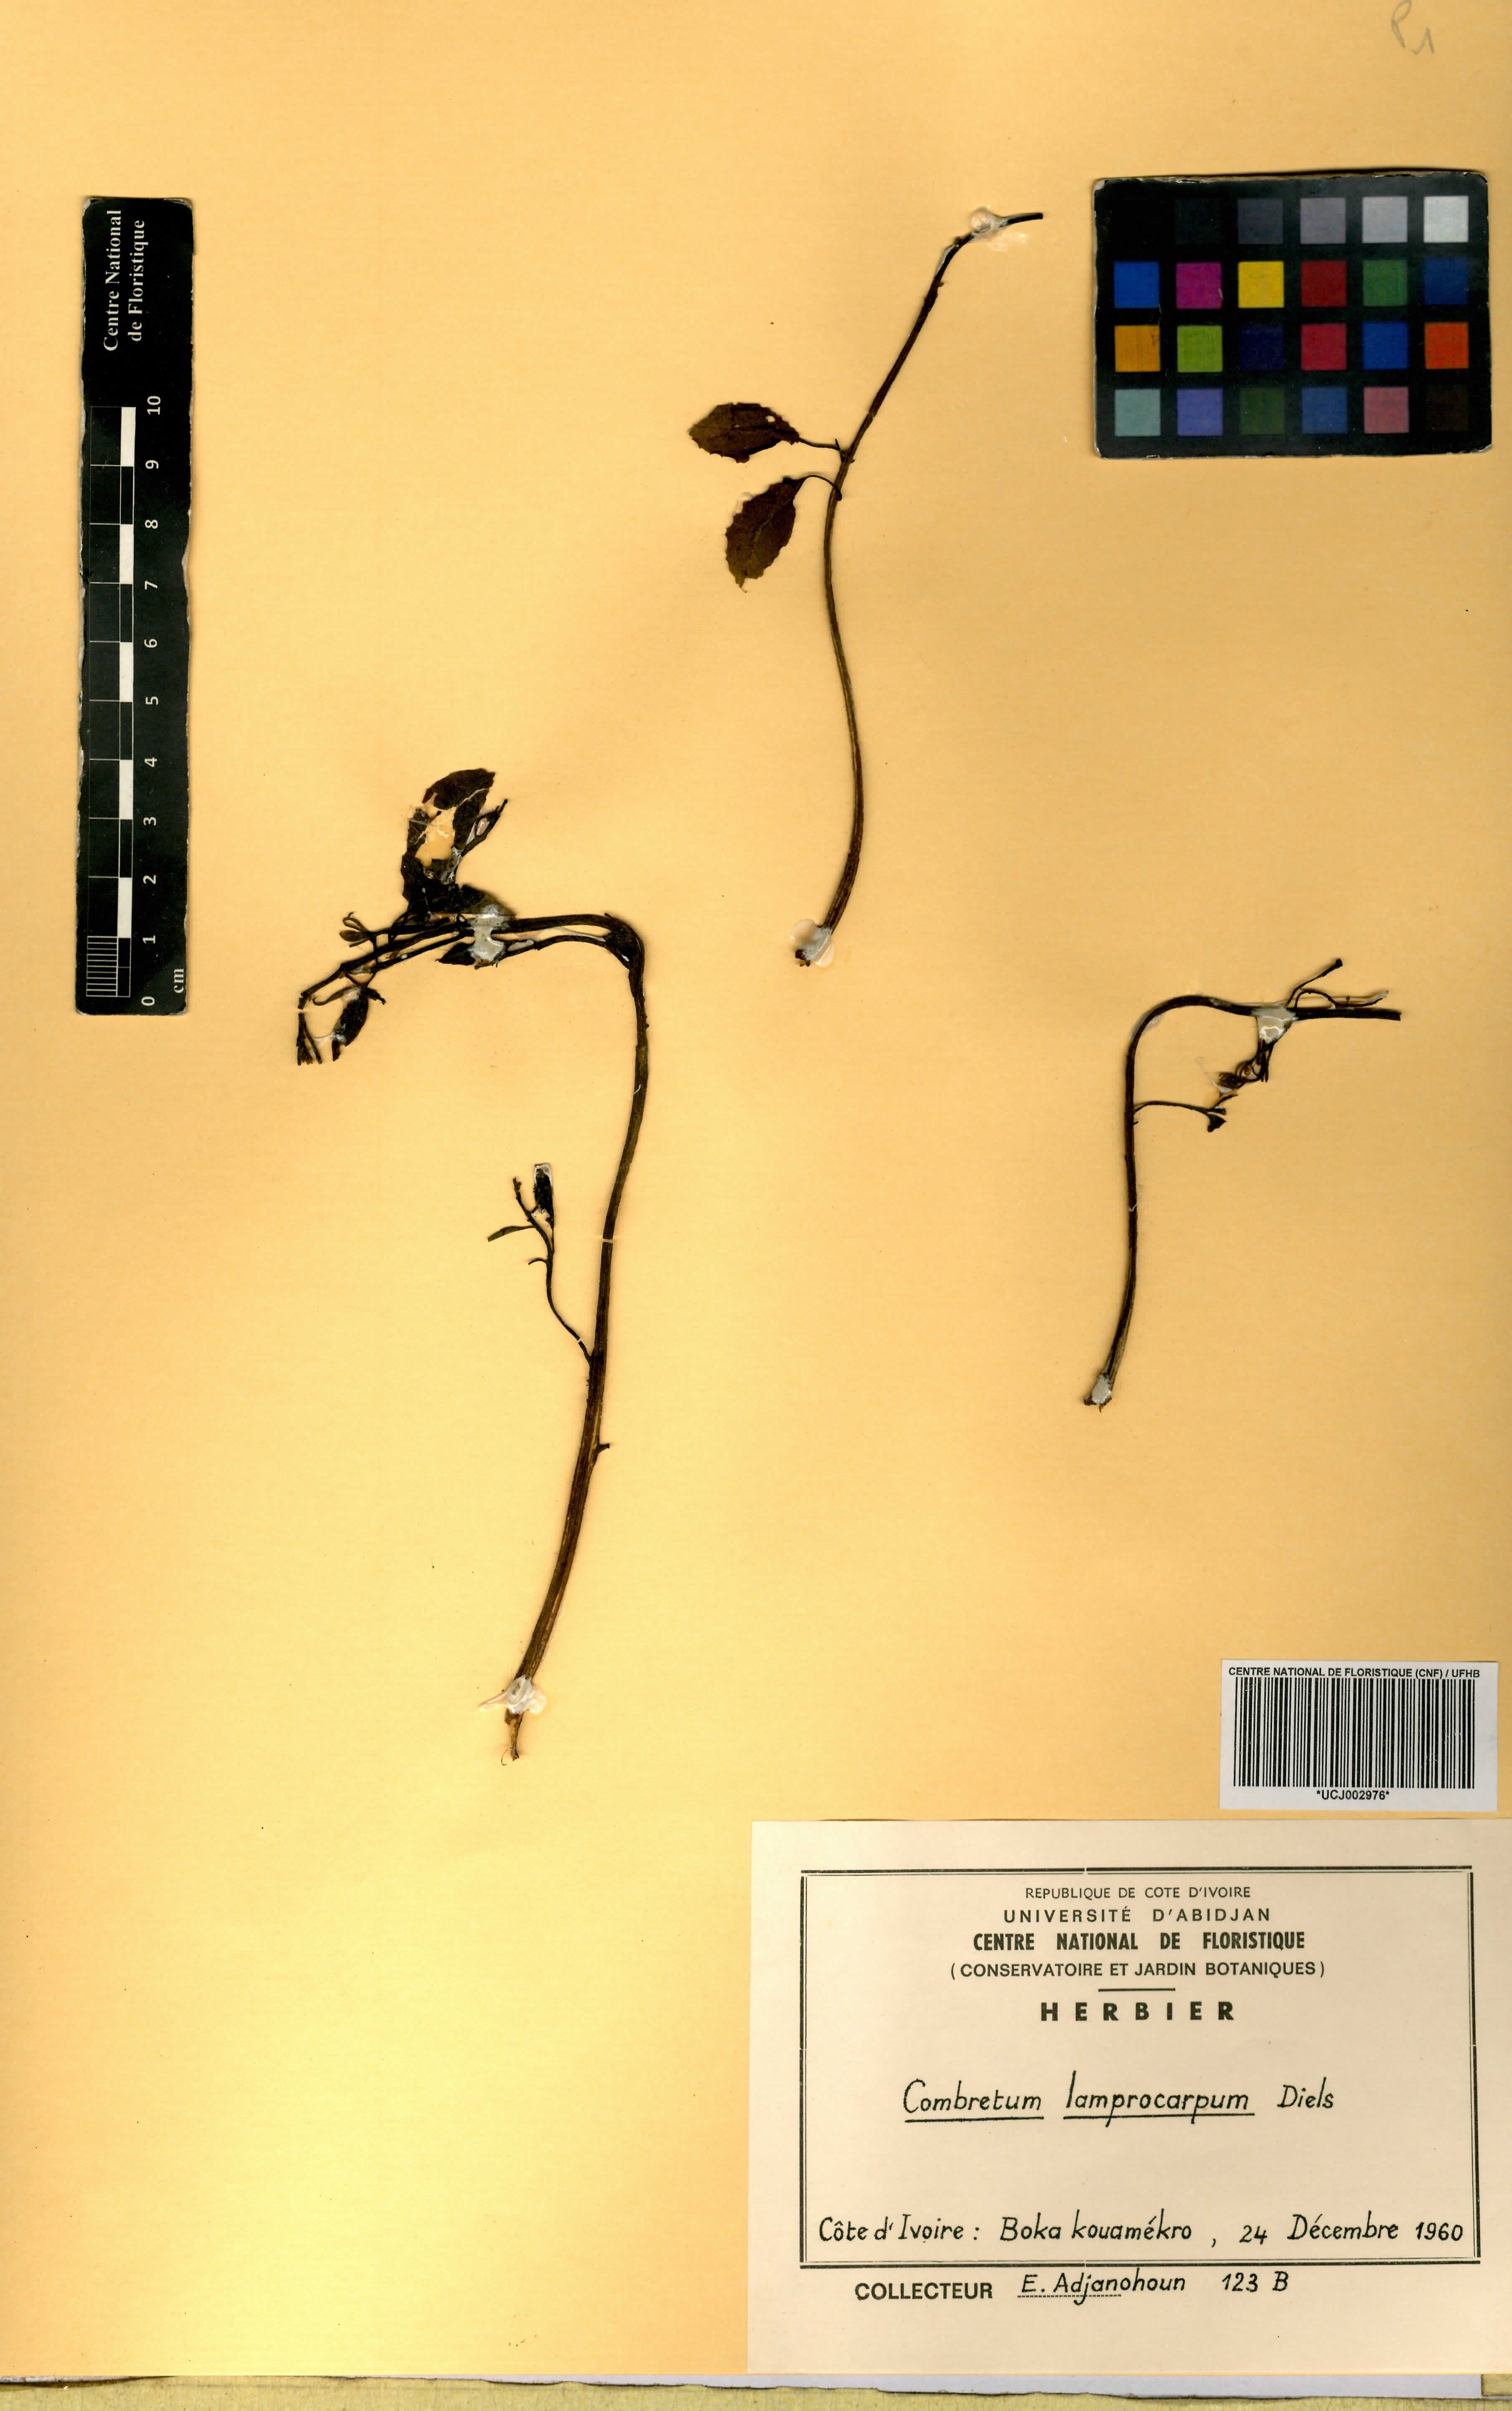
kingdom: Plantae
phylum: Tracheophyta
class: Magnoliopsida
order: Myrtales
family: Combretaceae
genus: Combretum
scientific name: Combretum collinum
